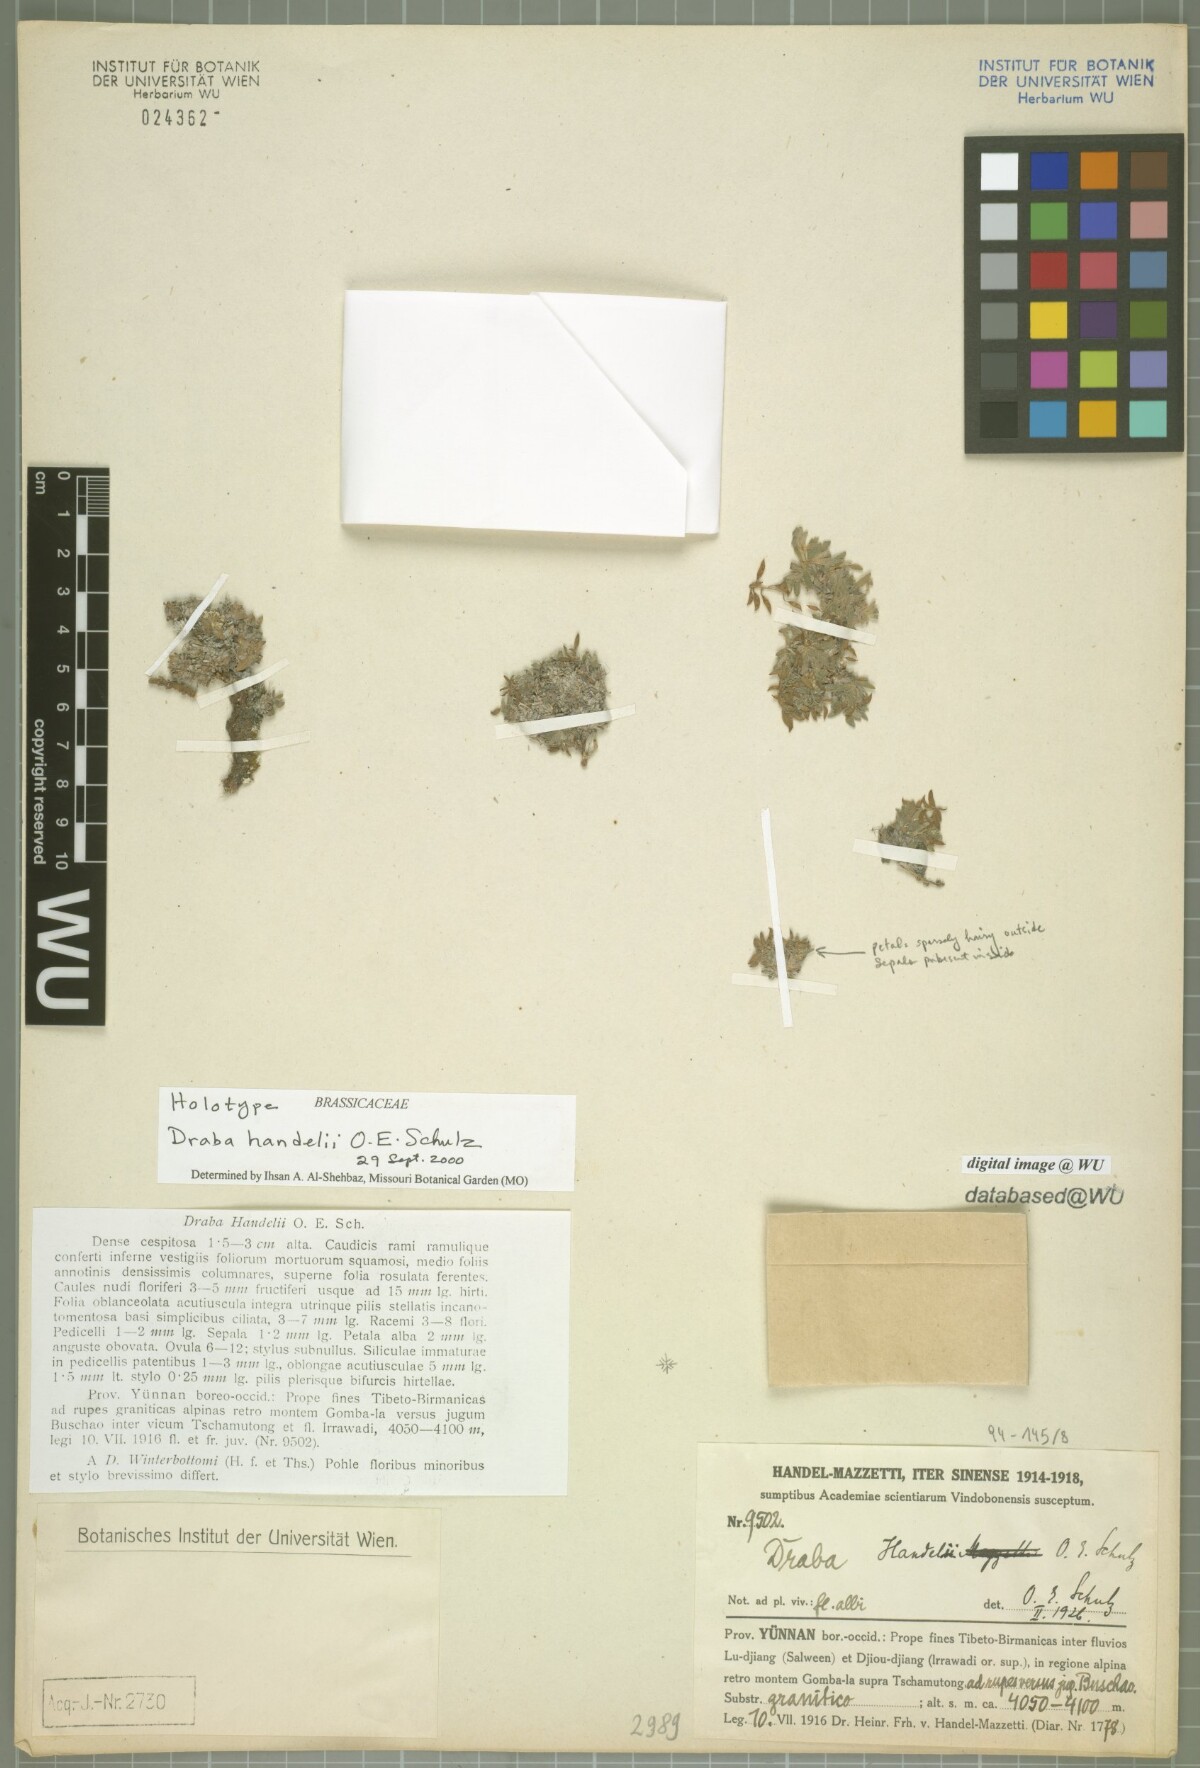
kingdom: Plantae
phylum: Tracheophyta
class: Magnoliopsida
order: Brassicales
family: Brassicaceae
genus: Draba
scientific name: Draba handelii
